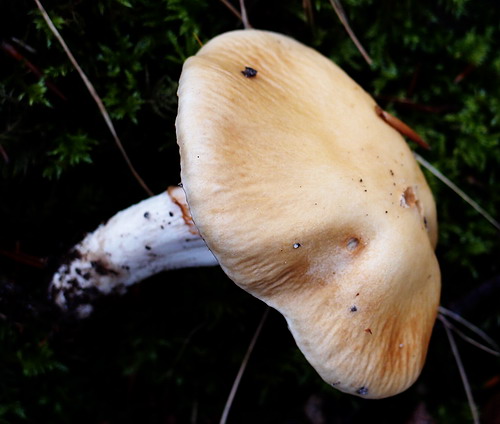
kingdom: Fungi
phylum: Basidiomycota
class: Agaricomycetes
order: Agaricales
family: Cortinariaceae
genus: Cortinarius
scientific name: Cortinarius elatior
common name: høj slørhat
